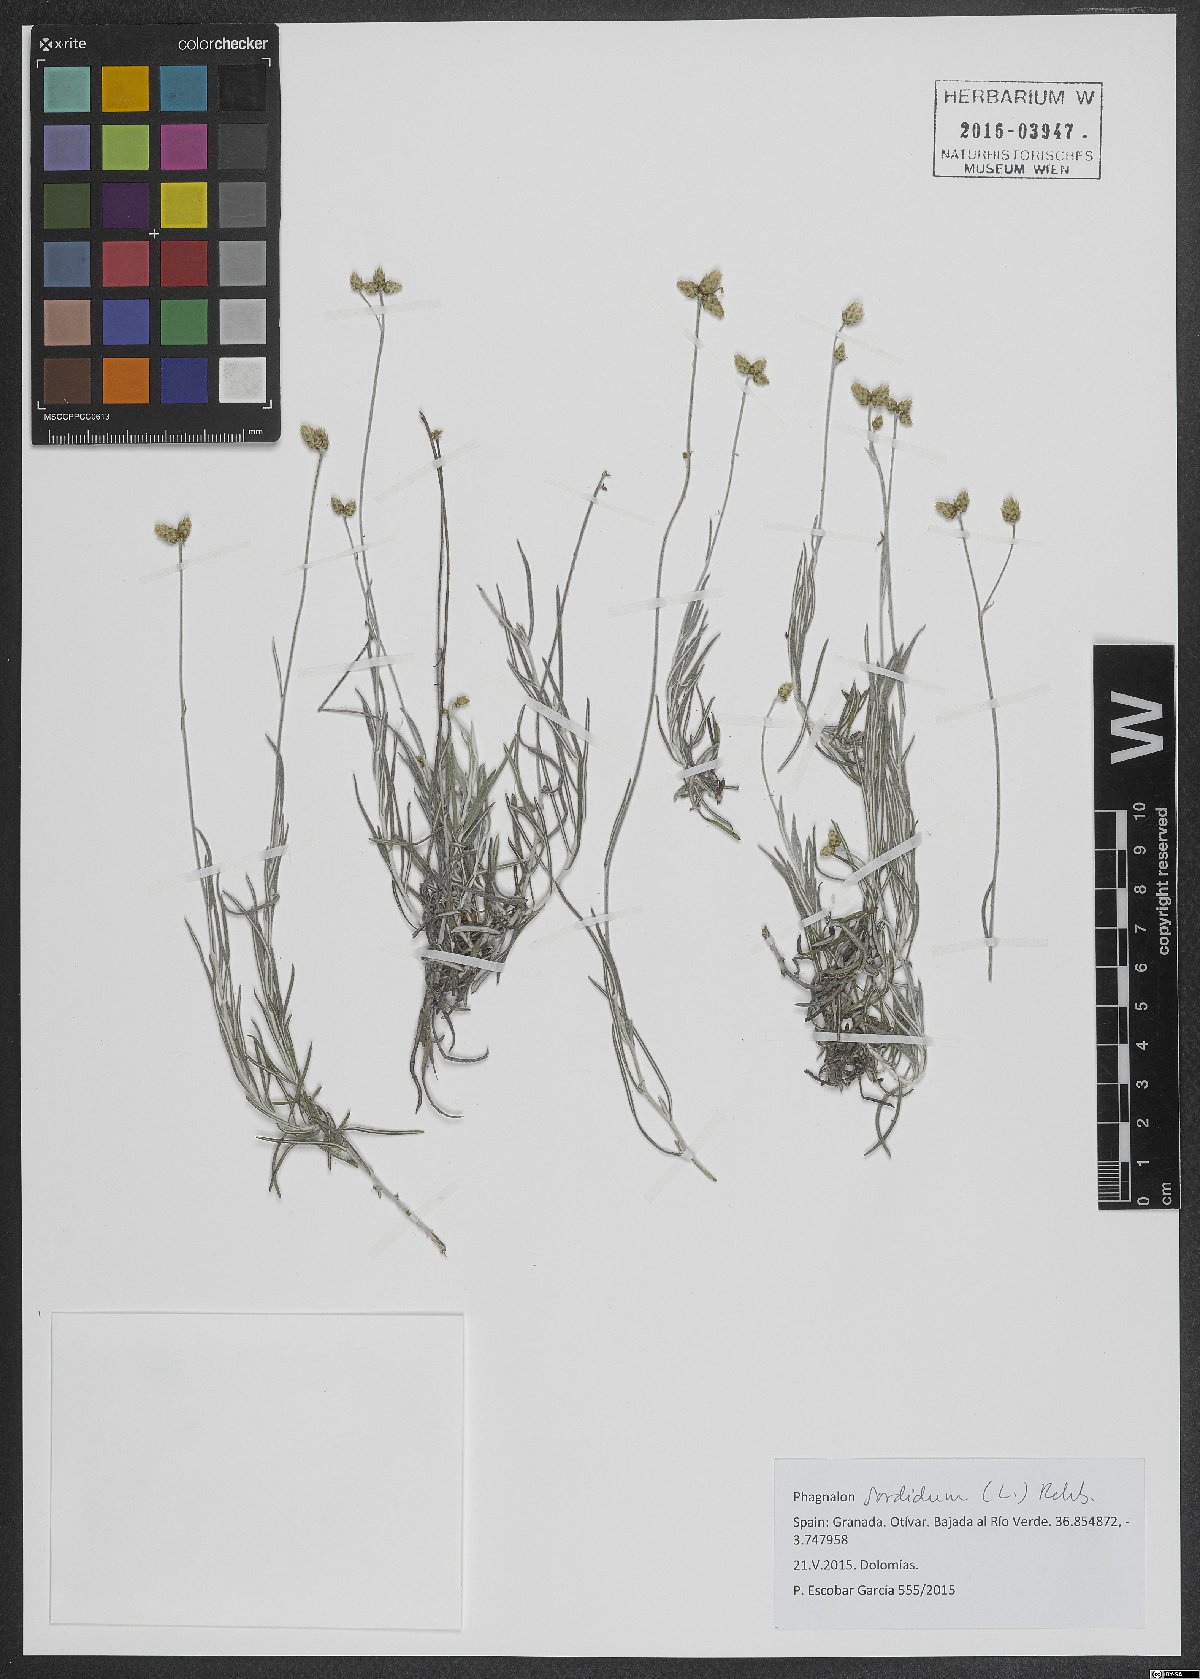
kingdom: Plantae
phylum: Tracheophyta
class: Magnoliopsida
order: Asterales
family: Asteraceae
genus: Phagnalon
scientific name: Phagnalon sordidum
